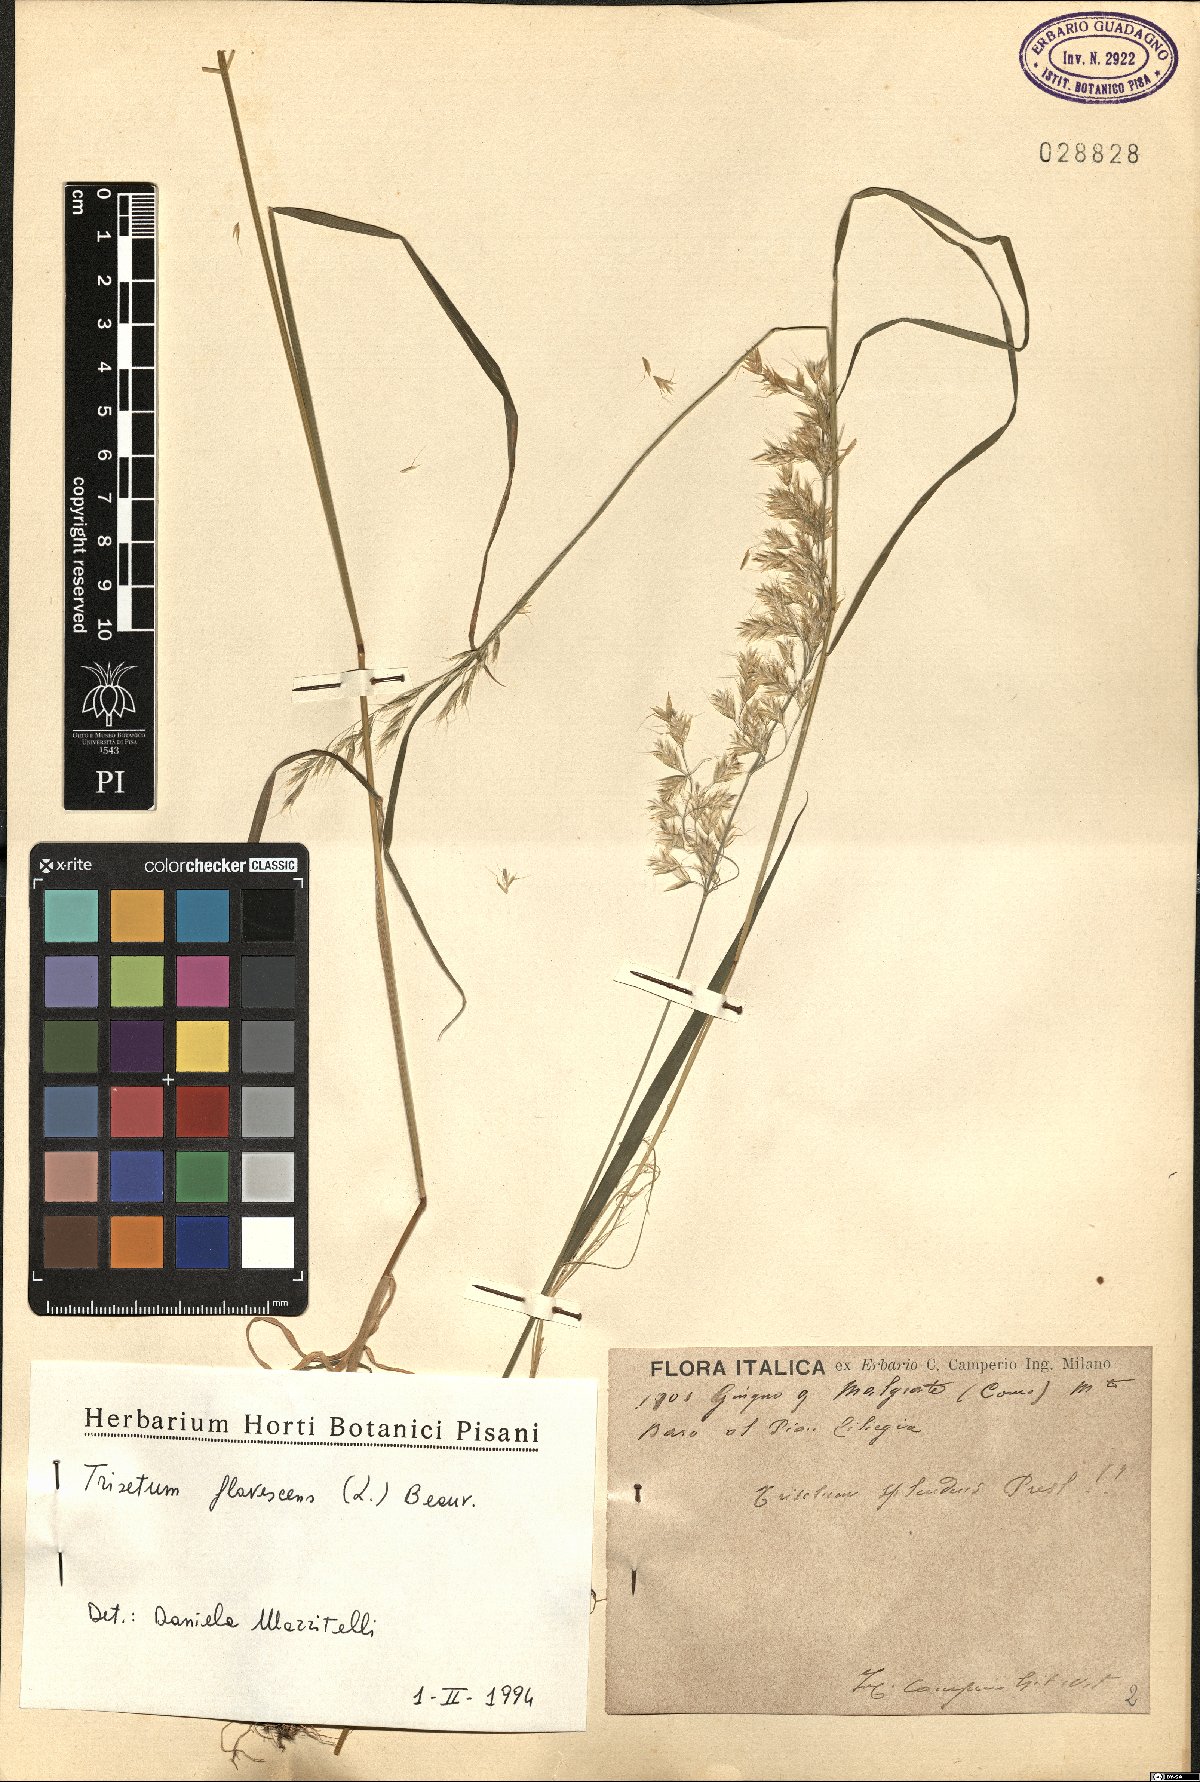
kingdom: Plantae
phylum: Tracheophyta
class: Liliopsida
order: Poales
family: Poaceae
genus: Trisetum
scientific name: Trisetum flavescens
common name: Yellow oat-grass
